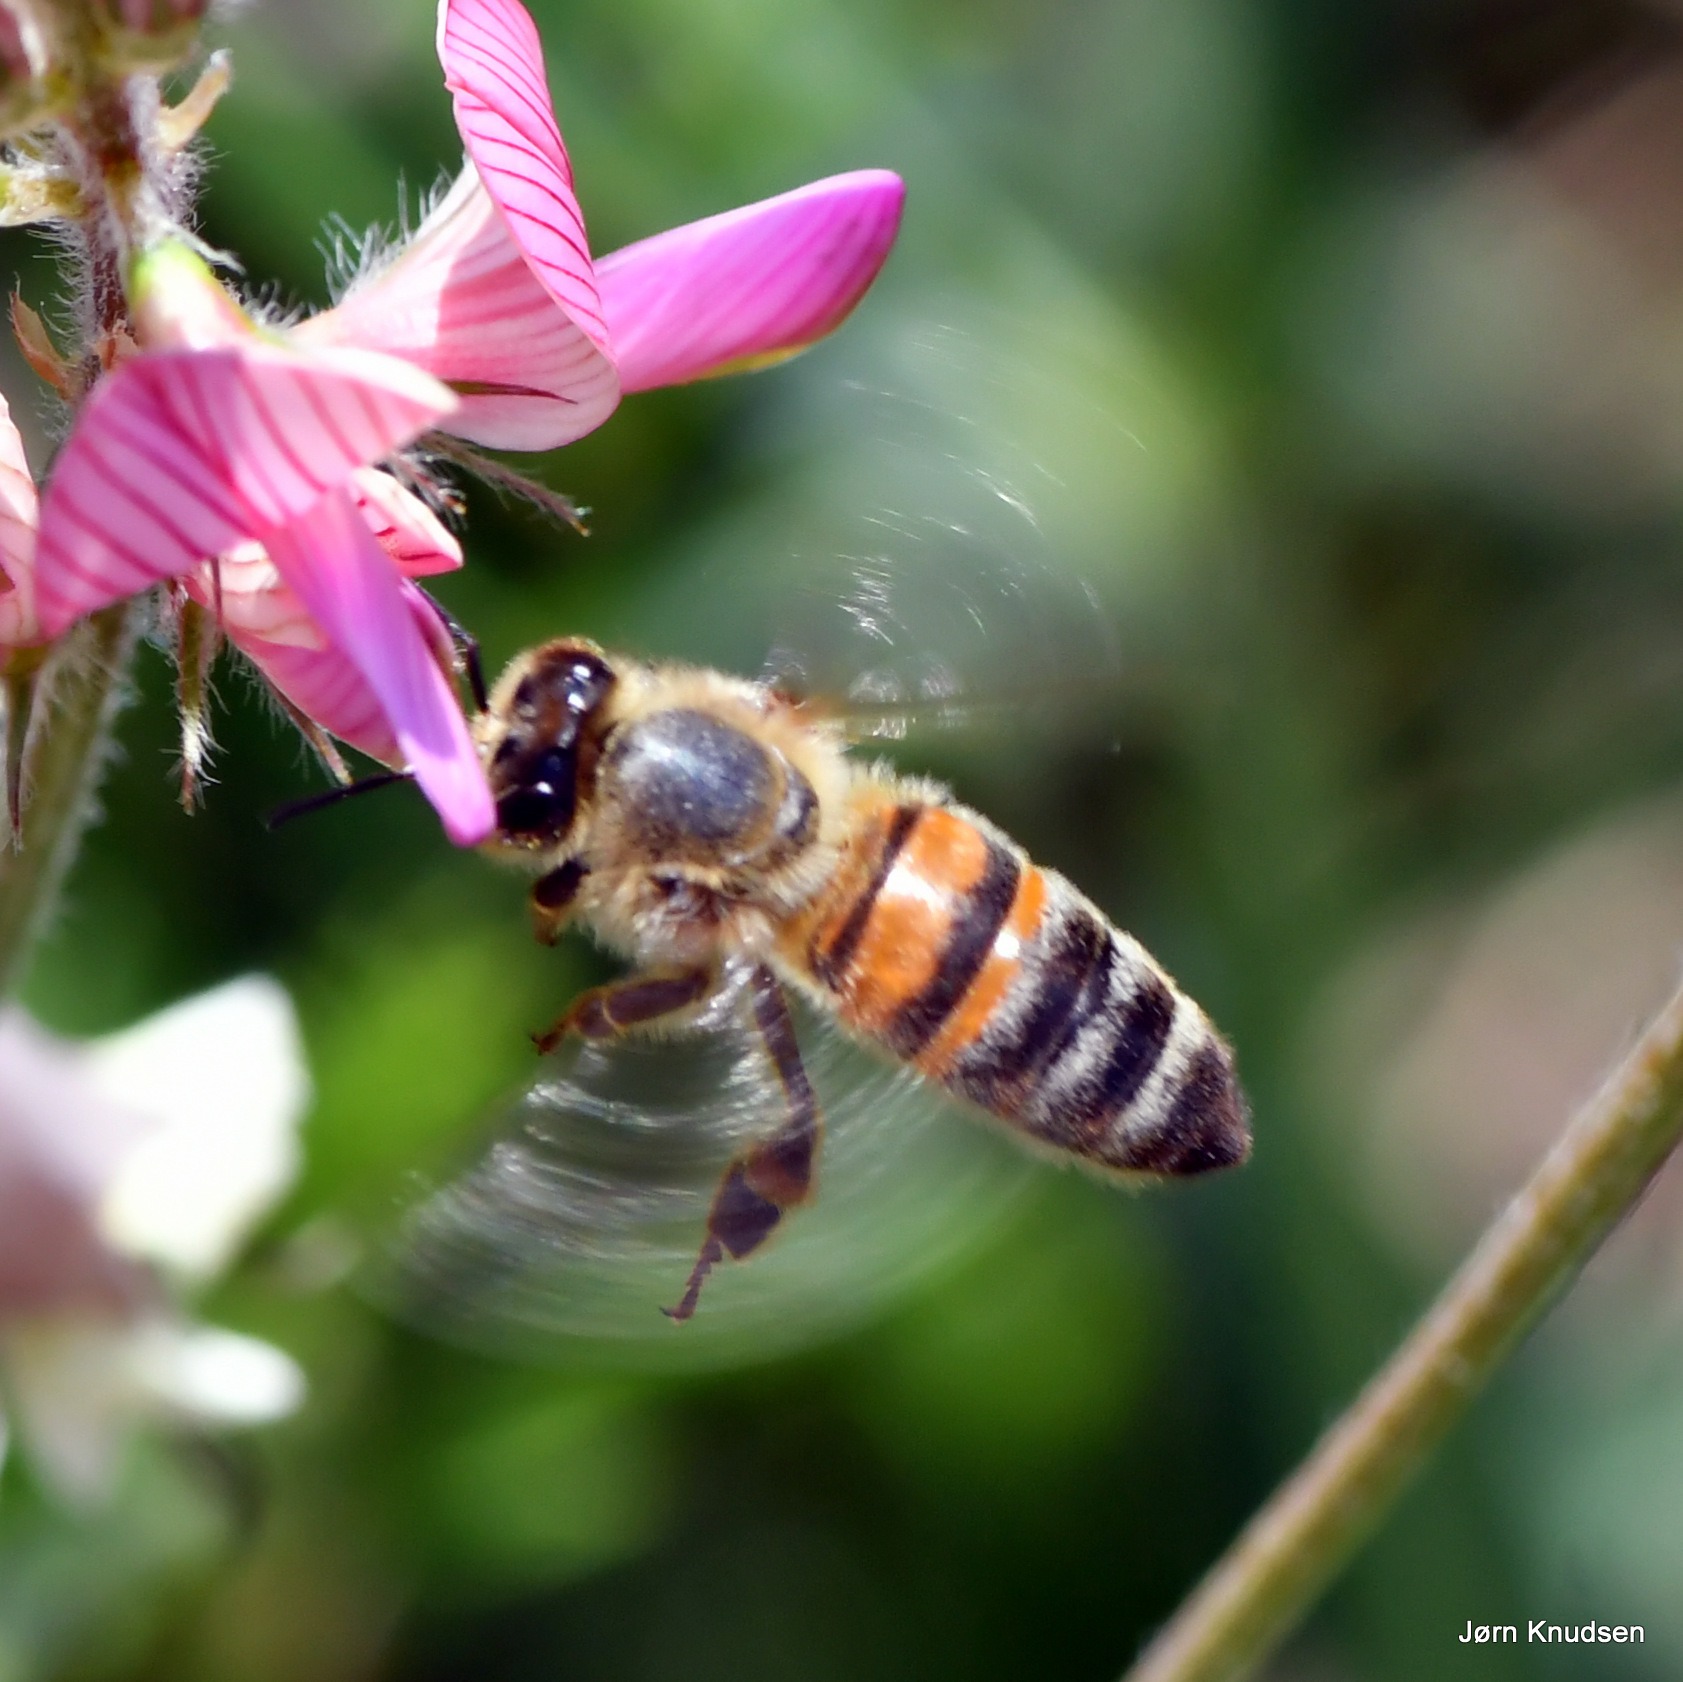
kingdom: Animalia
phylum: Arthropoda
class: Insecta
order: Hymenoptera
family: Apidae
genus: Apis
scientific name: Apis mellifera
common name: Honningbi
